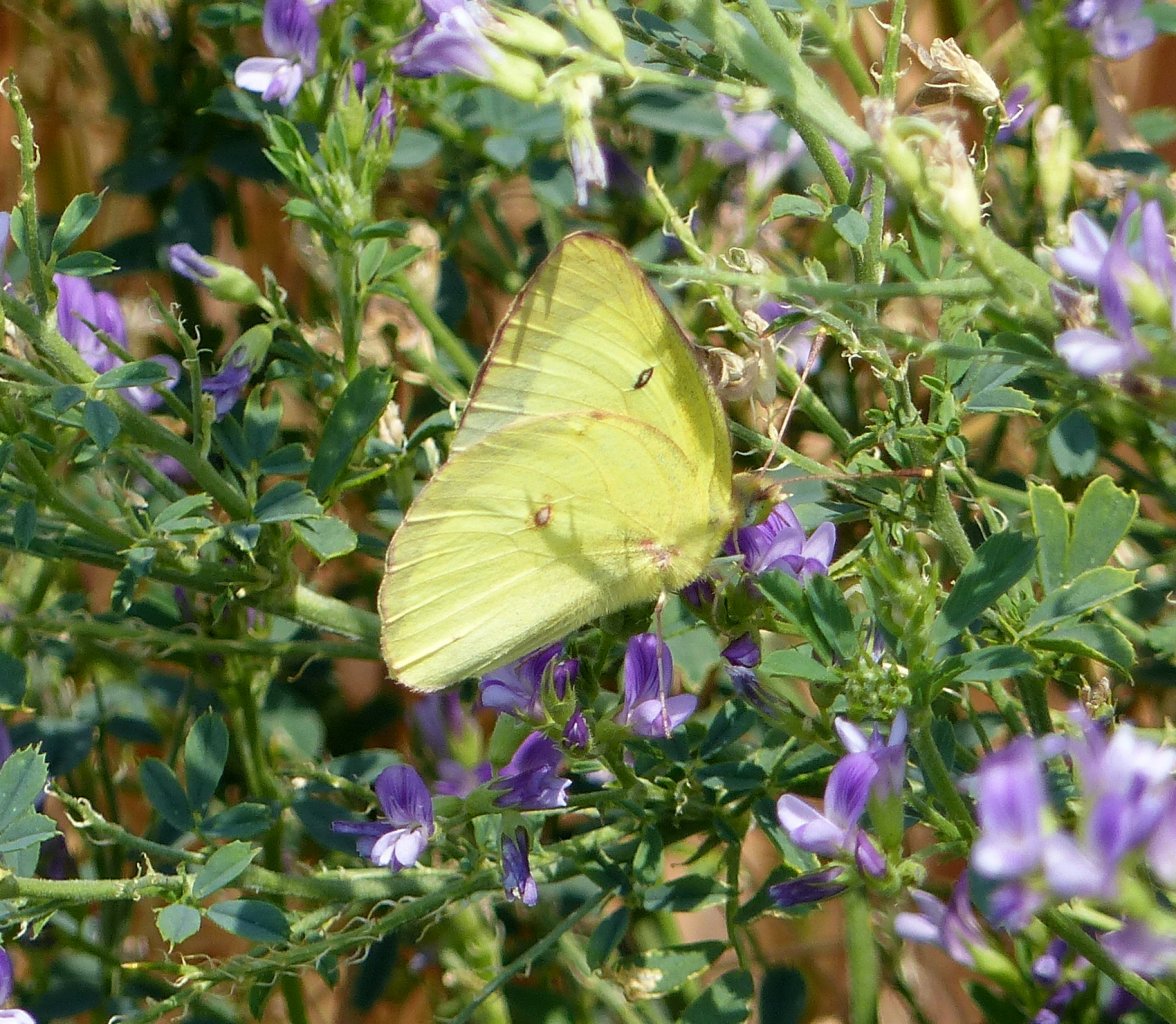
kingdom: Animalia
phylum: Arthropoda
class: Insecta
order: Lepidoptera
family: Pieridae
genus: Colias
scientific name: Colias philodice
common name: Clouded Sulphur
